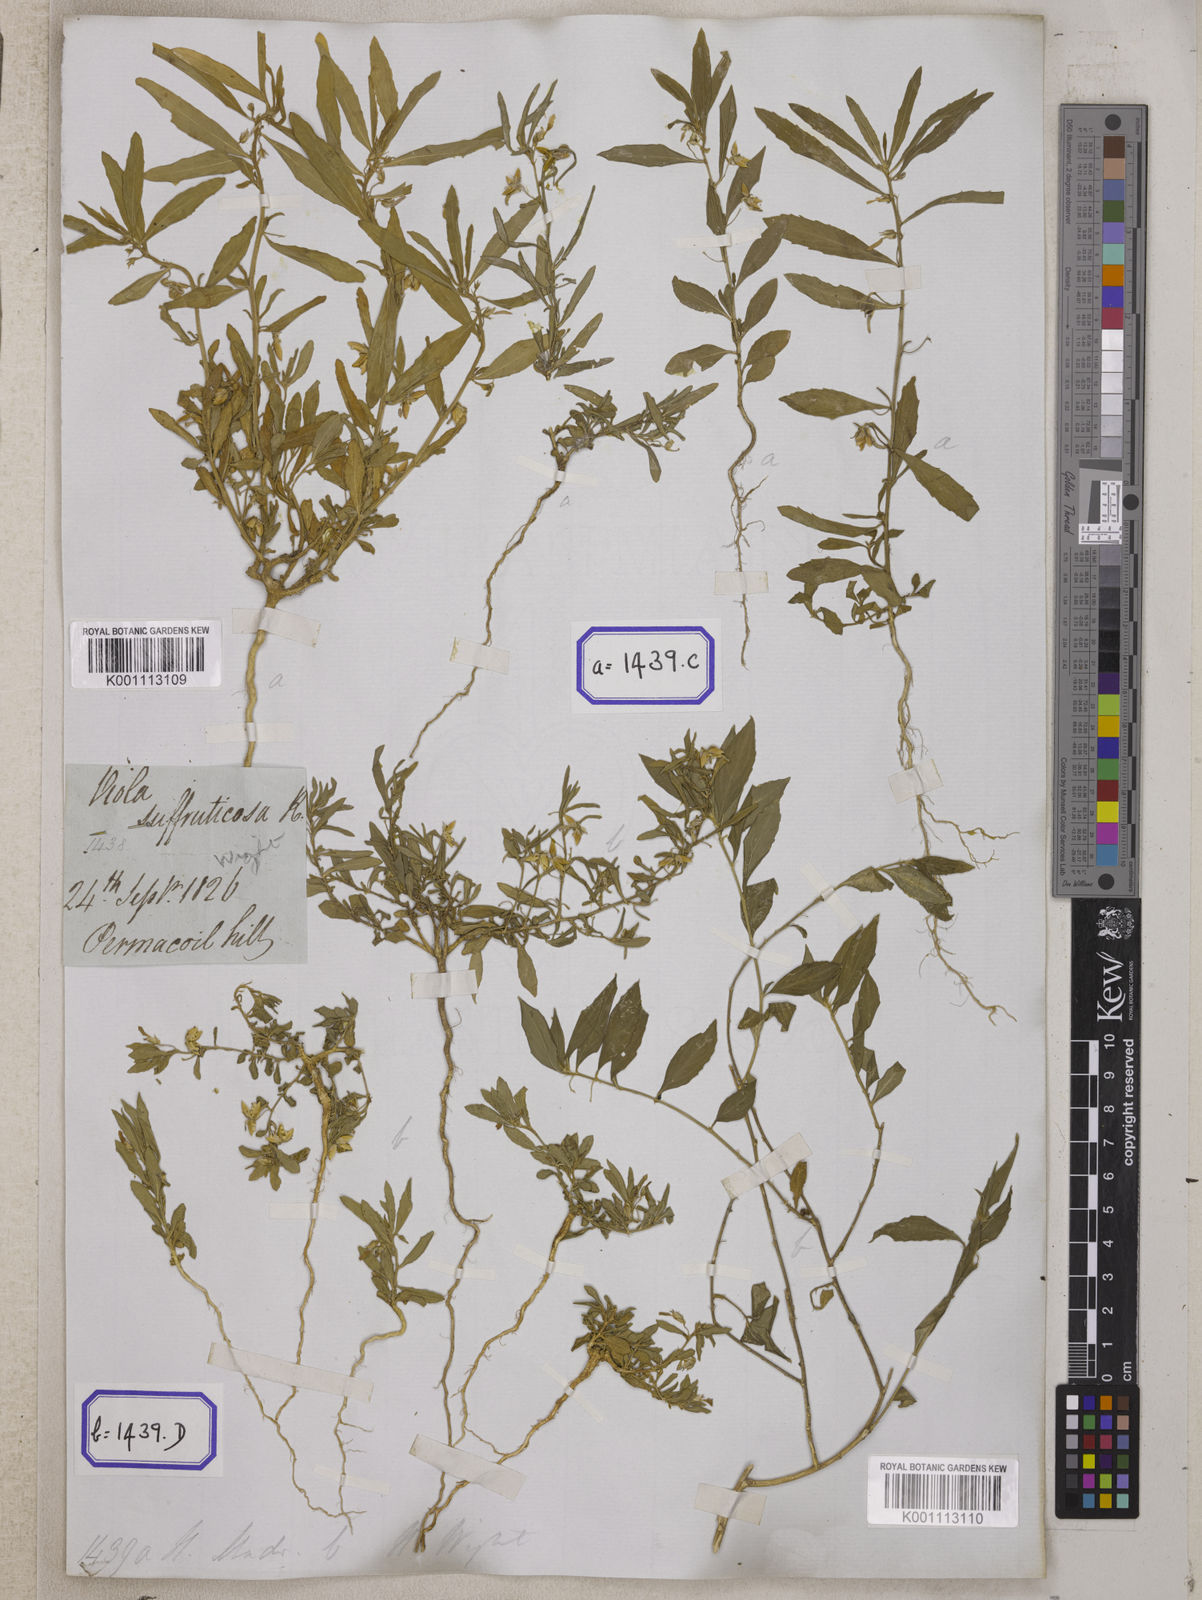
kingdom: Plantae
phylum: Tracheophyta
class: Magnoliopsida
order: Malpighiales
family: Violaceae
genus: Pigea
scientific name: Pigea enneasperma
